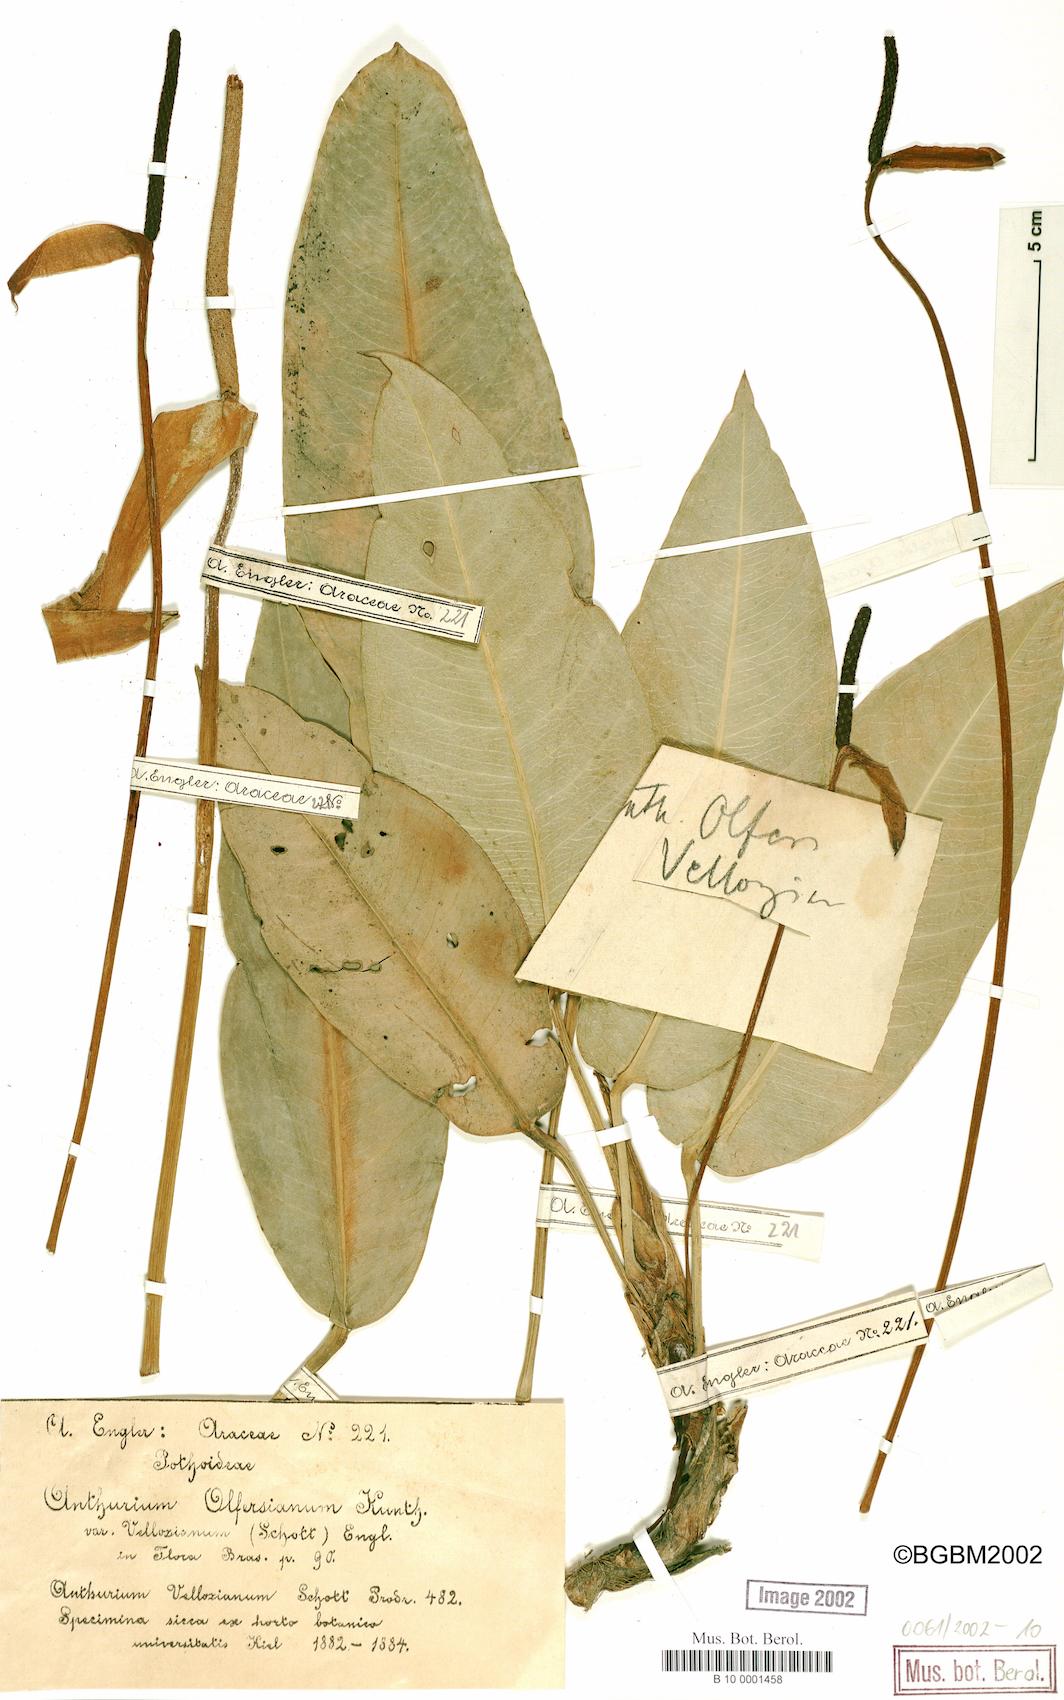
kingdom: Plantae
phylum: Tracheophyta
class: Liliopsida
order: Alismatales
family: Araceae
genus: Anthurium
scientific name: Anthurium parasiticum
